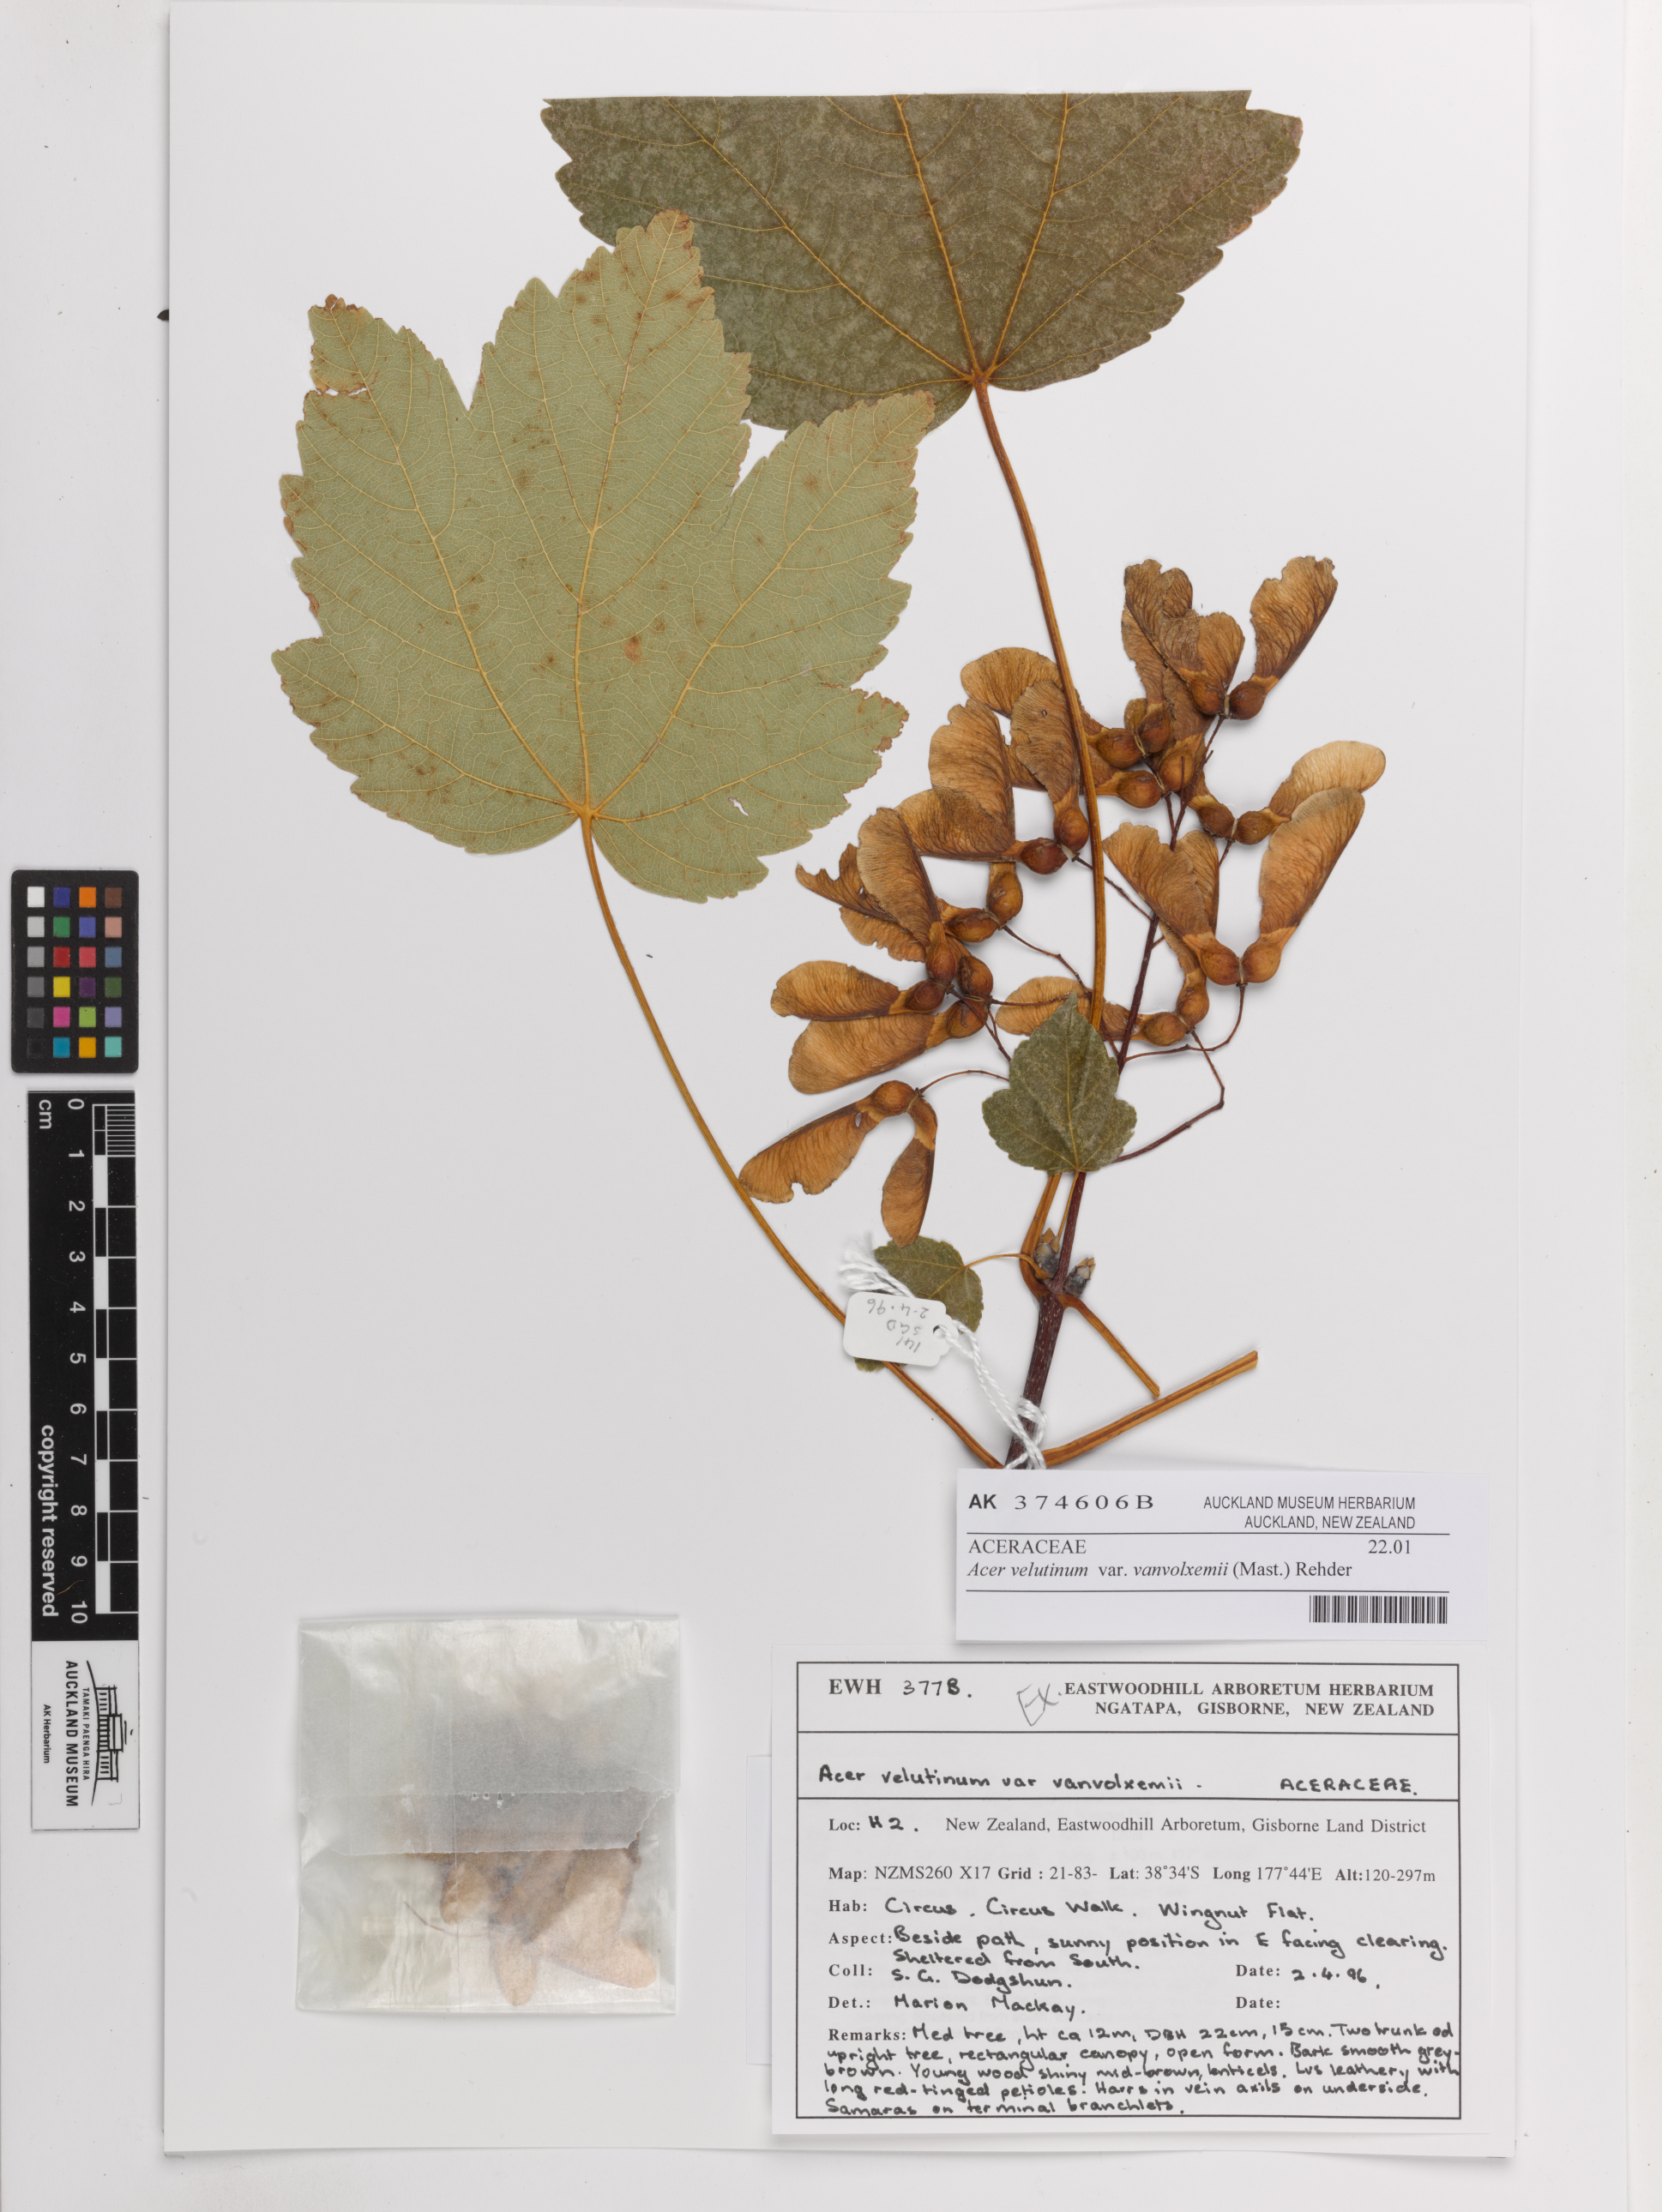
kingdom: Plantae
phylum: Tracheophyta
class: Magnoliopsida
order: Sapindales
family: Sapindaceae
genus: Acer
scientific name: Acer velutinum
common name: Velvet maple
